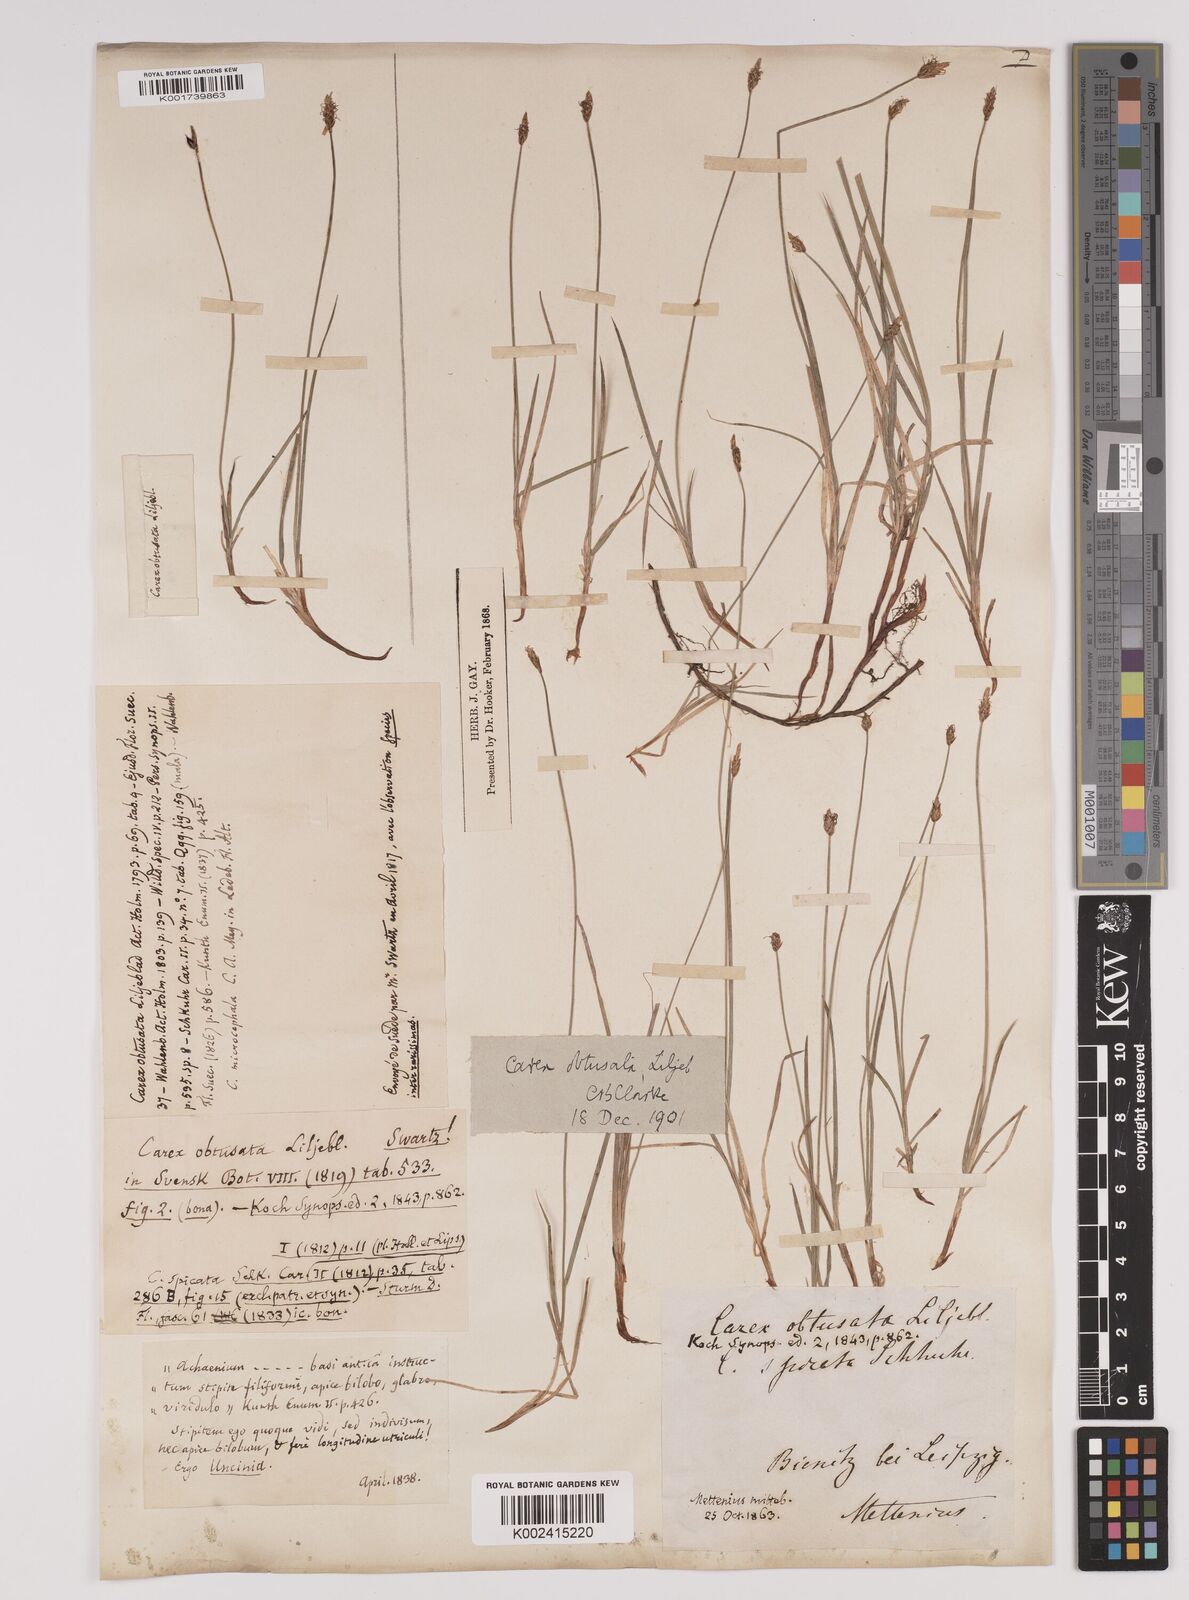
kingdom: Plantae
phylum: Tracheophyta
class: Liliopsida
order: Poales
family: Cyperaceae
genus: Carex
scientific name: Carex obtusata
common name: Blunt sedge
